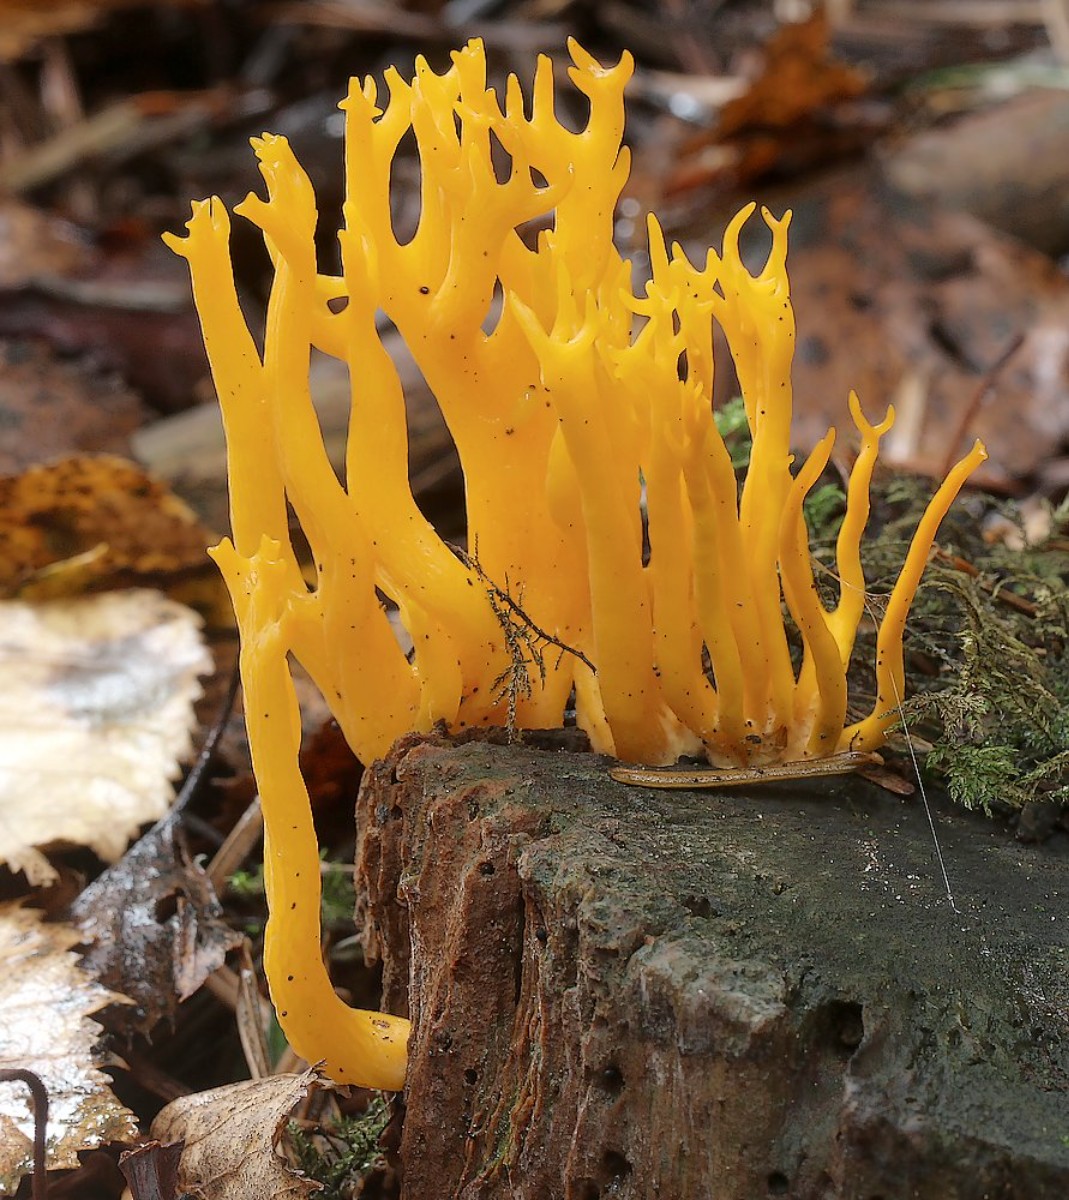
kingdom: Fungi
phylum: Basidiomycota
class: Dacrymycetes
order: Dacrymycetales
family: Dacrymycetaceae
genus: Calocera
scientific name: Calocera viscosa
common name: almindelig guldgaffel
